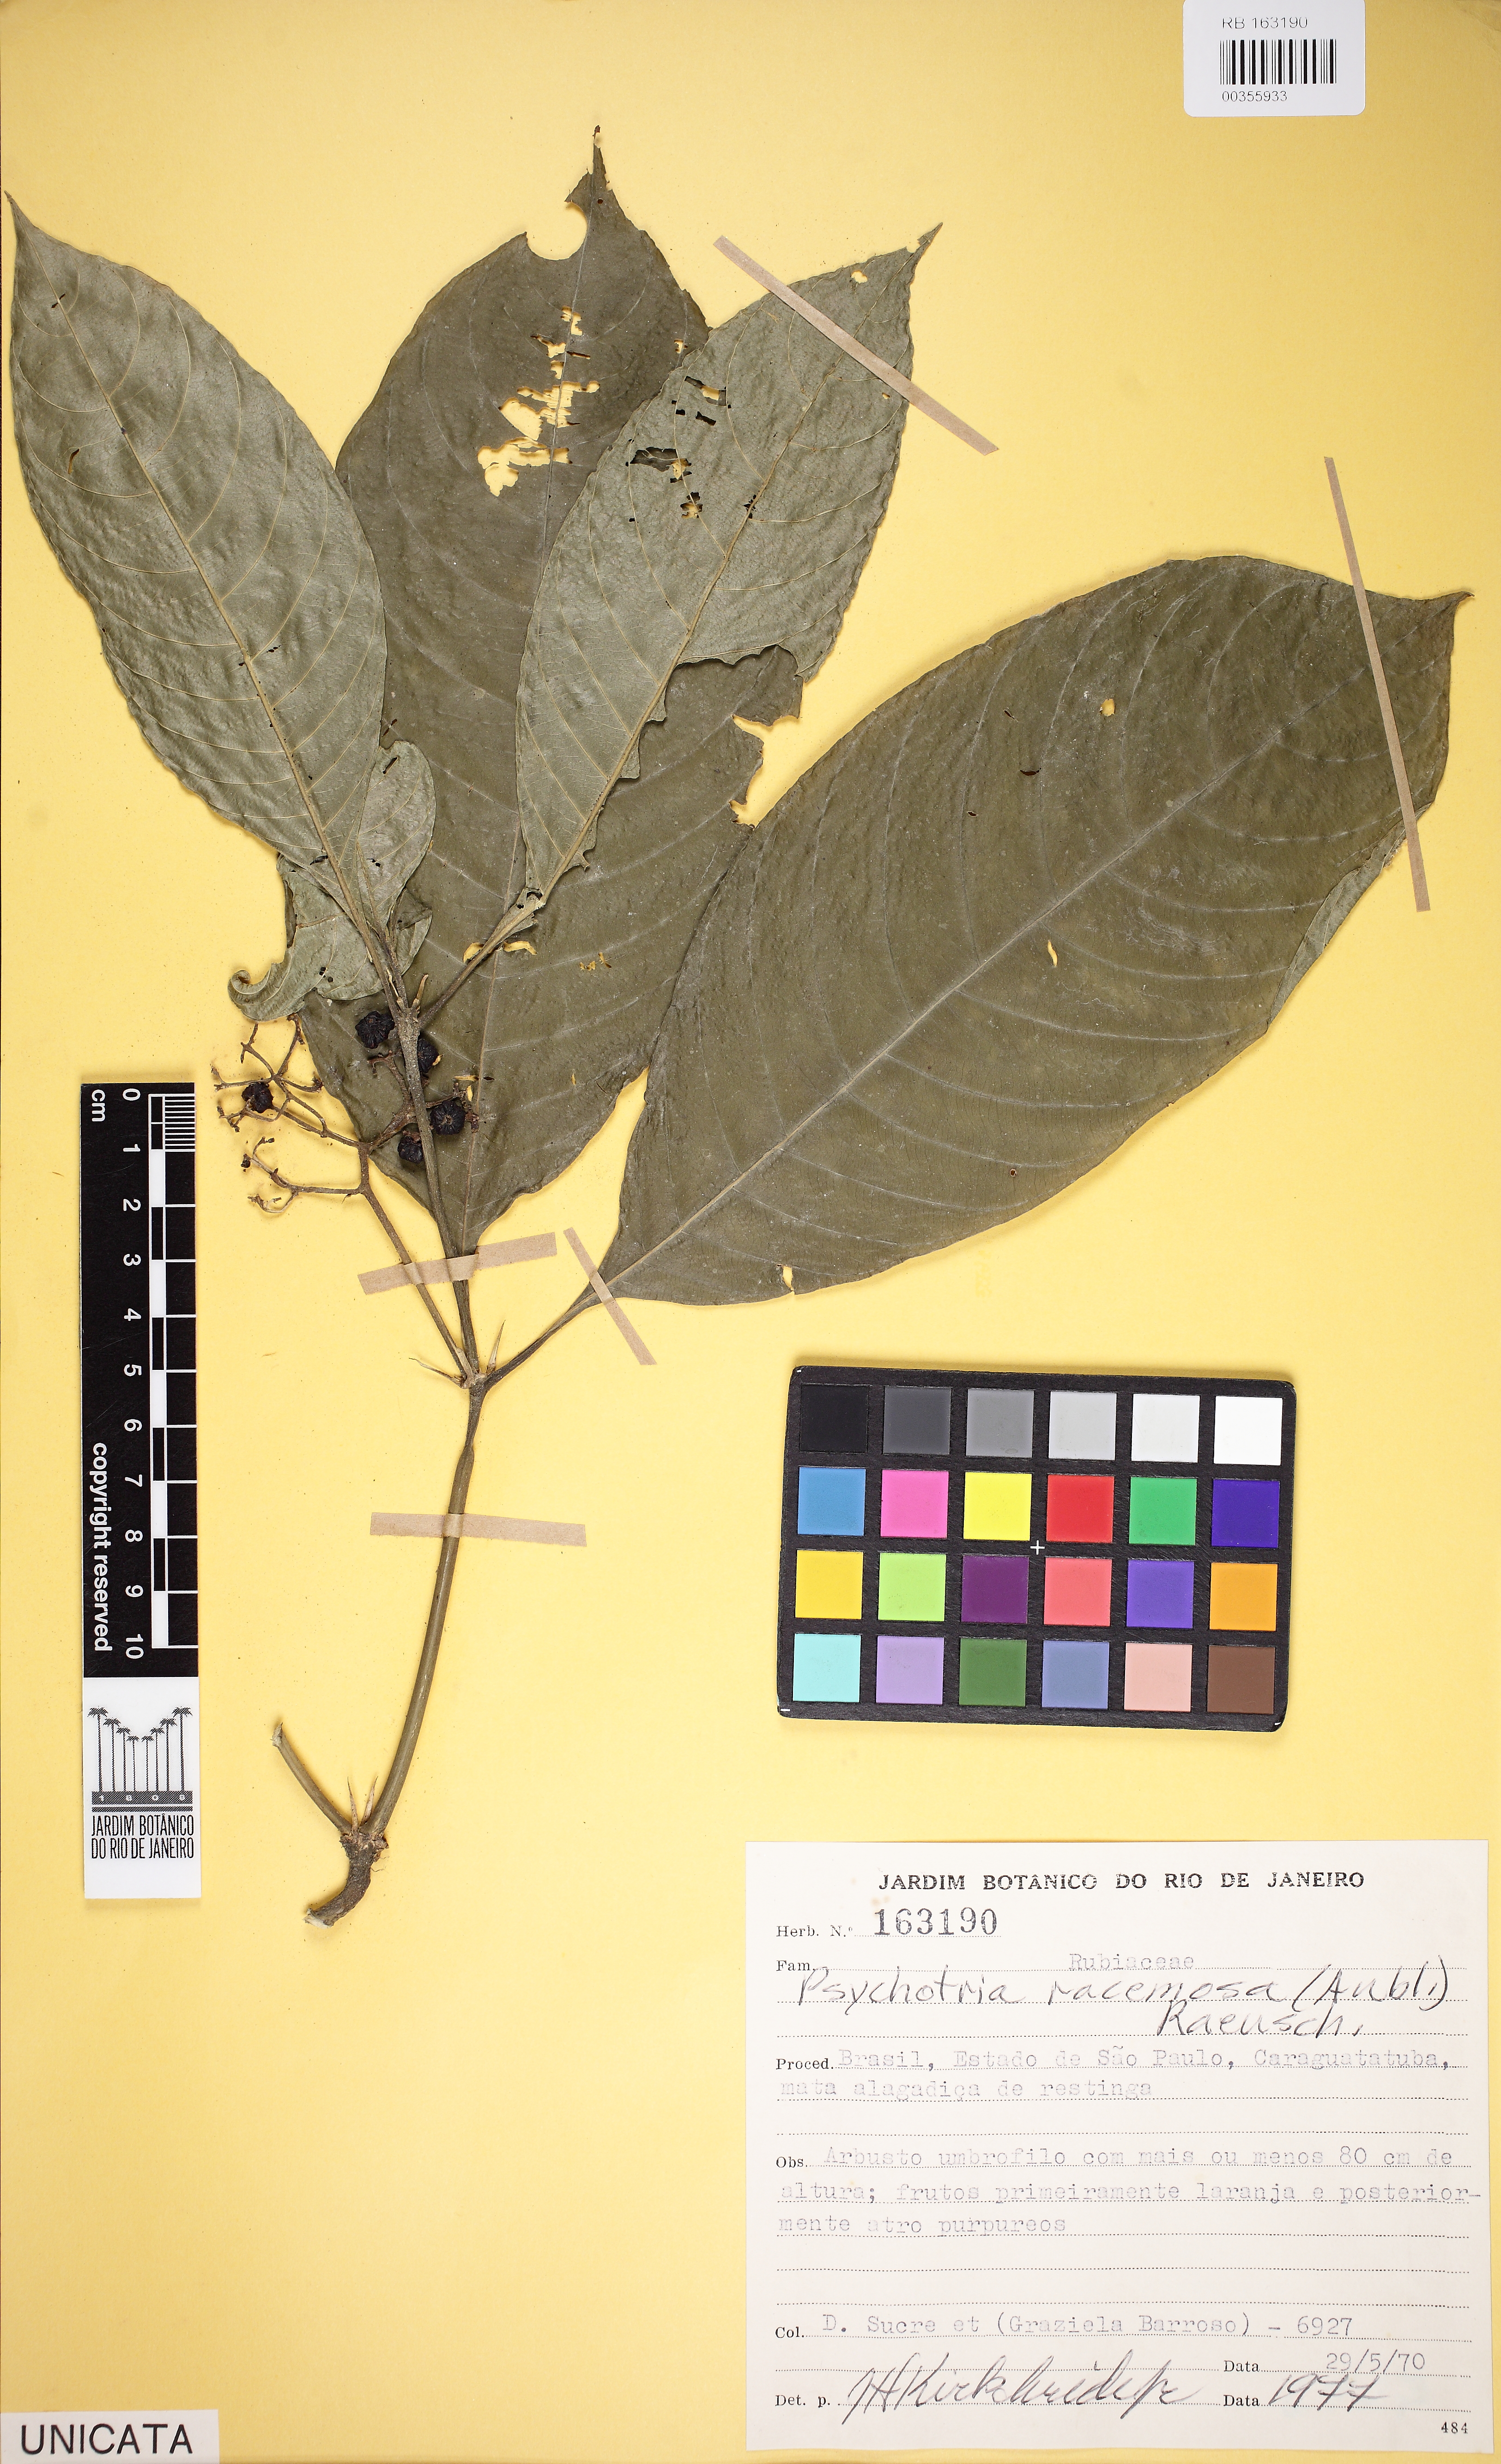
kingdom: Plantae
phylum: Tracheophyta
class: Magnoliopsida
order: Gentianales
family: Rubiaceae
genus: Palicourea
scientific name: Palicourea racemosa
